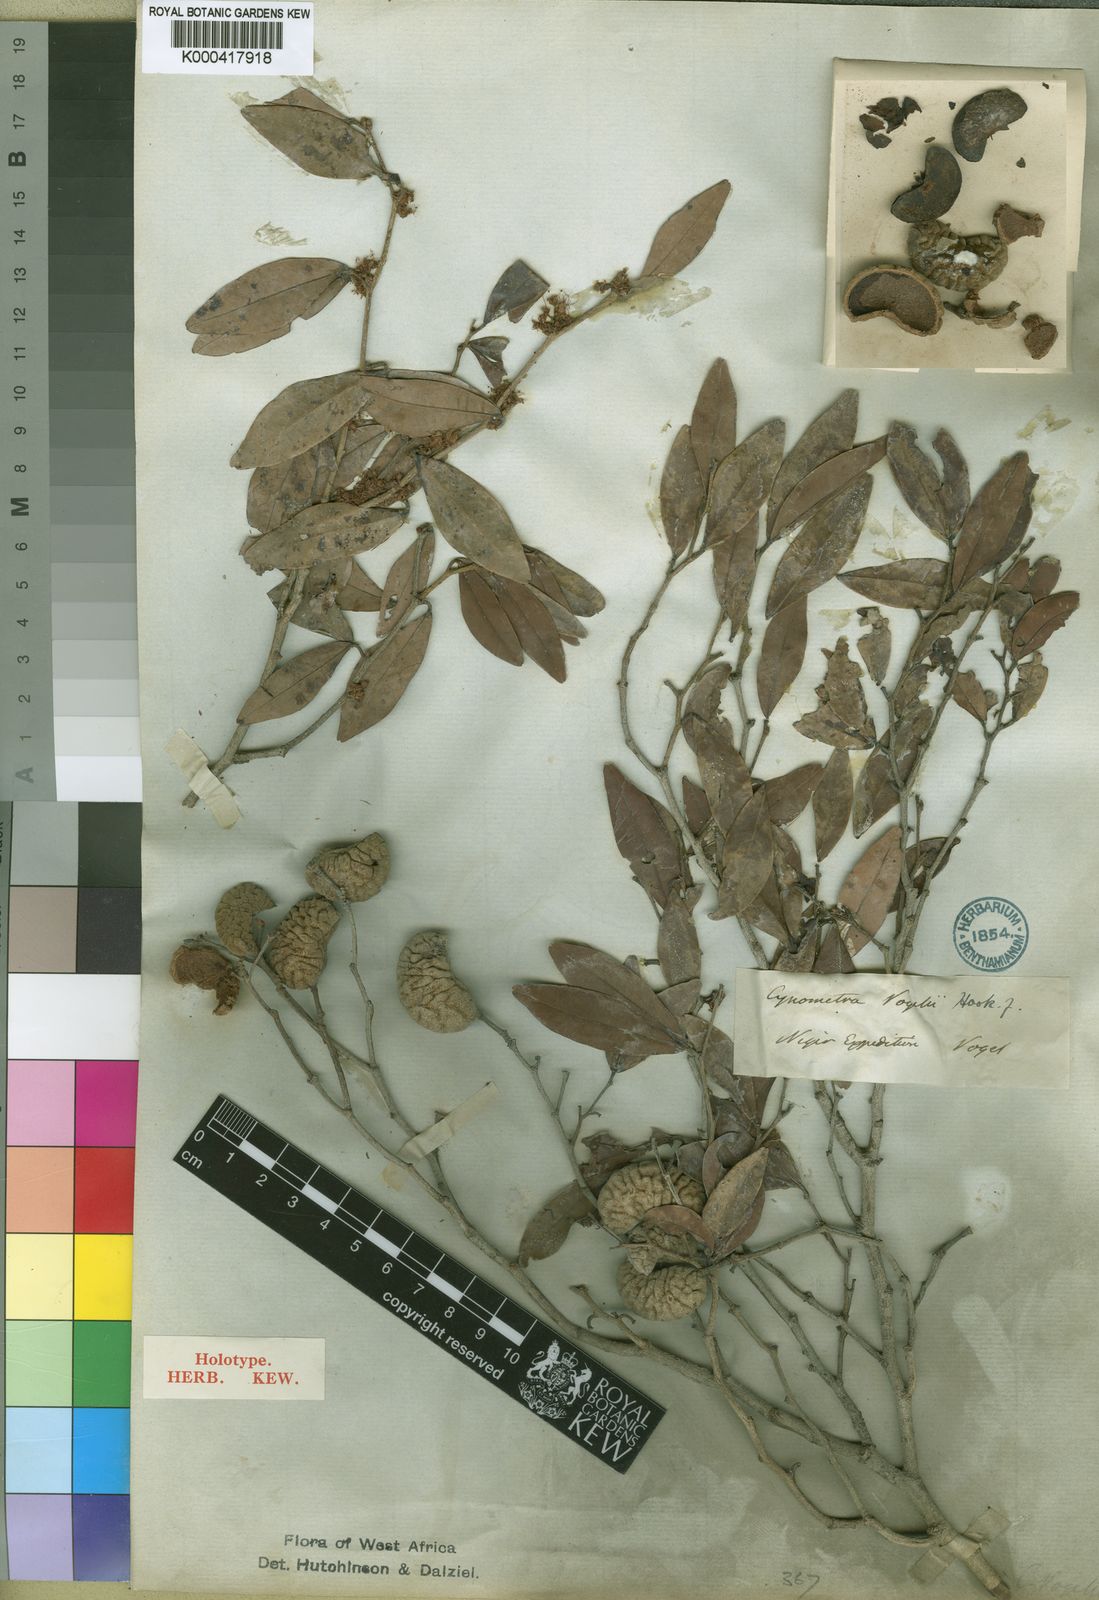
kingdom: Plantae
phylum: Tracheophyta
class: Magnoliopsida
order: Fabales
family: Fabaceae
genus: Cynometra
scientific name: Cynometra vogelii
